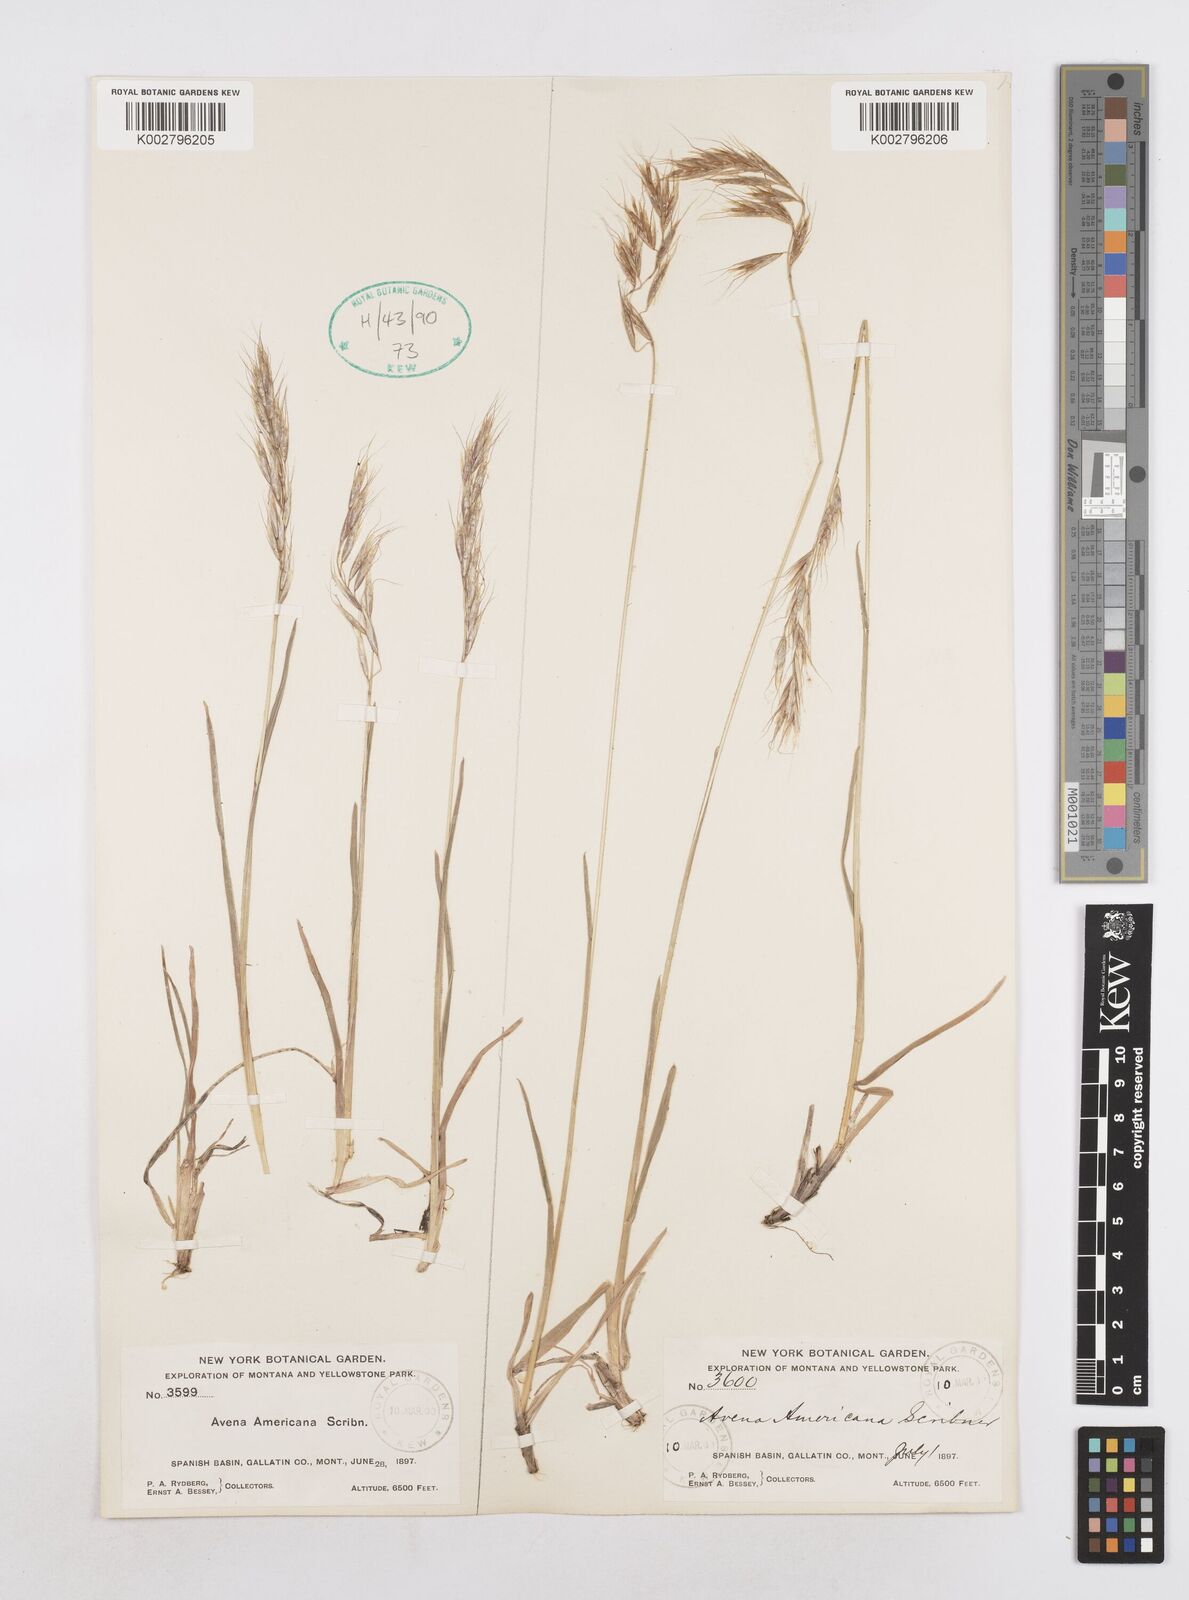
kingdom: Plantae
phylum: Tracheophyta
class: Liliopsida
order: Poales
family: Poaceae
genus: Helictotrichon
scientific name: Helictotrichon
